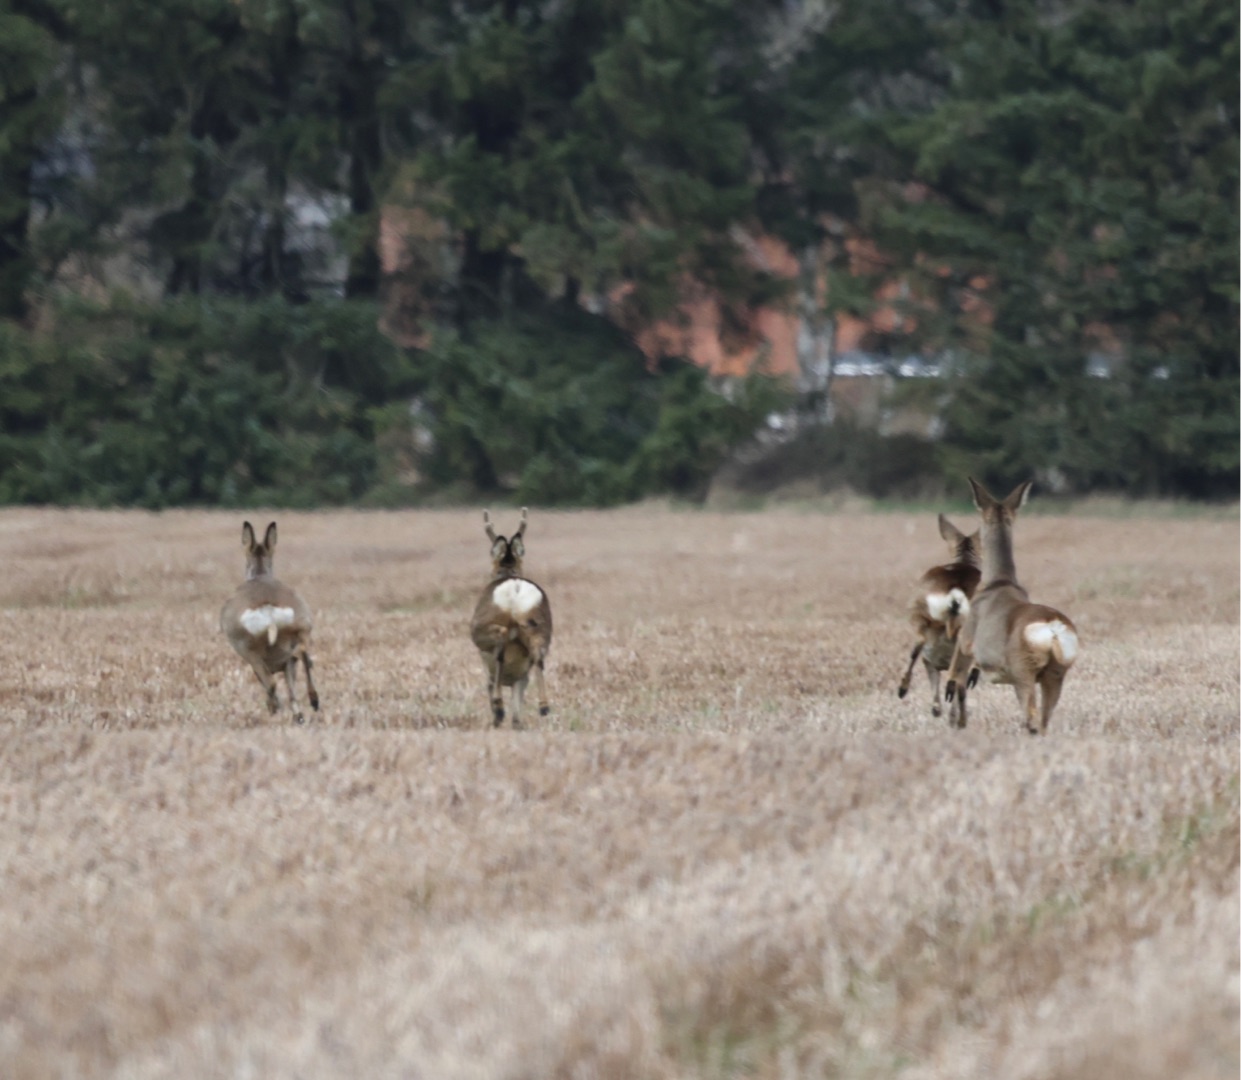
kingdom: Animalia
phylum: Chordata
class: Mammalia
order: Artiodactyla
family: Cervidae
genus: Capreolus
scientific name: Capreolus capreolus
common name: Rådyr
